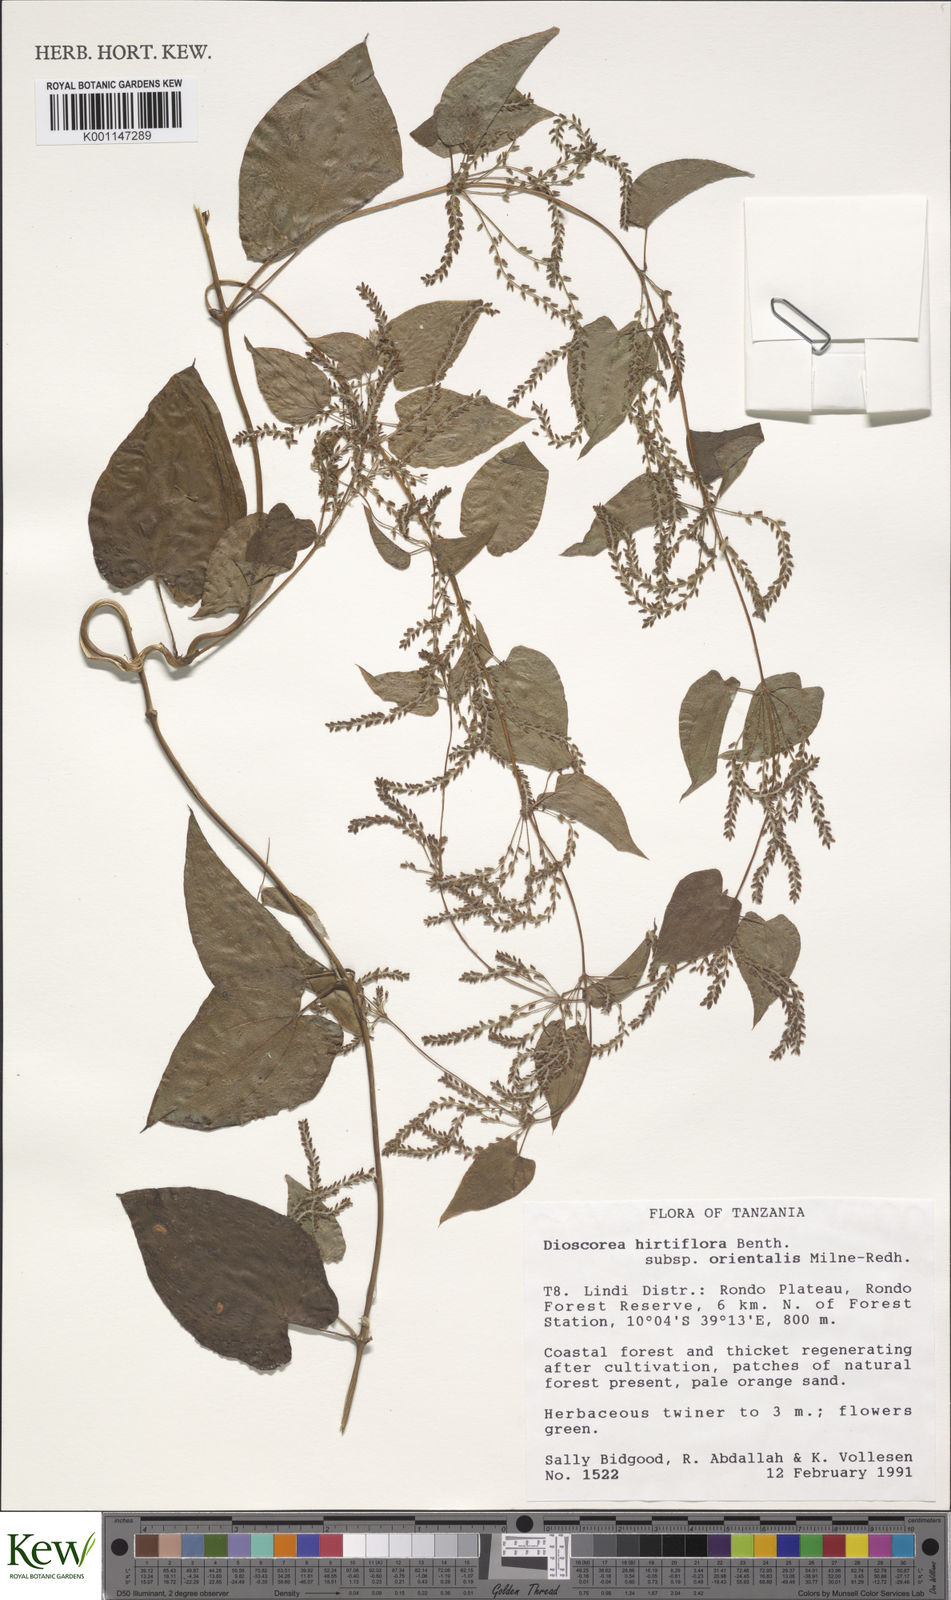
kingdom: Plantae
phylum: Tracheophyta
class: Liliopsida
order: Dioscoreales
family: Dioscoreaceae
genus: Dioscorea
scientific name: Dioscorea hirtiflora
